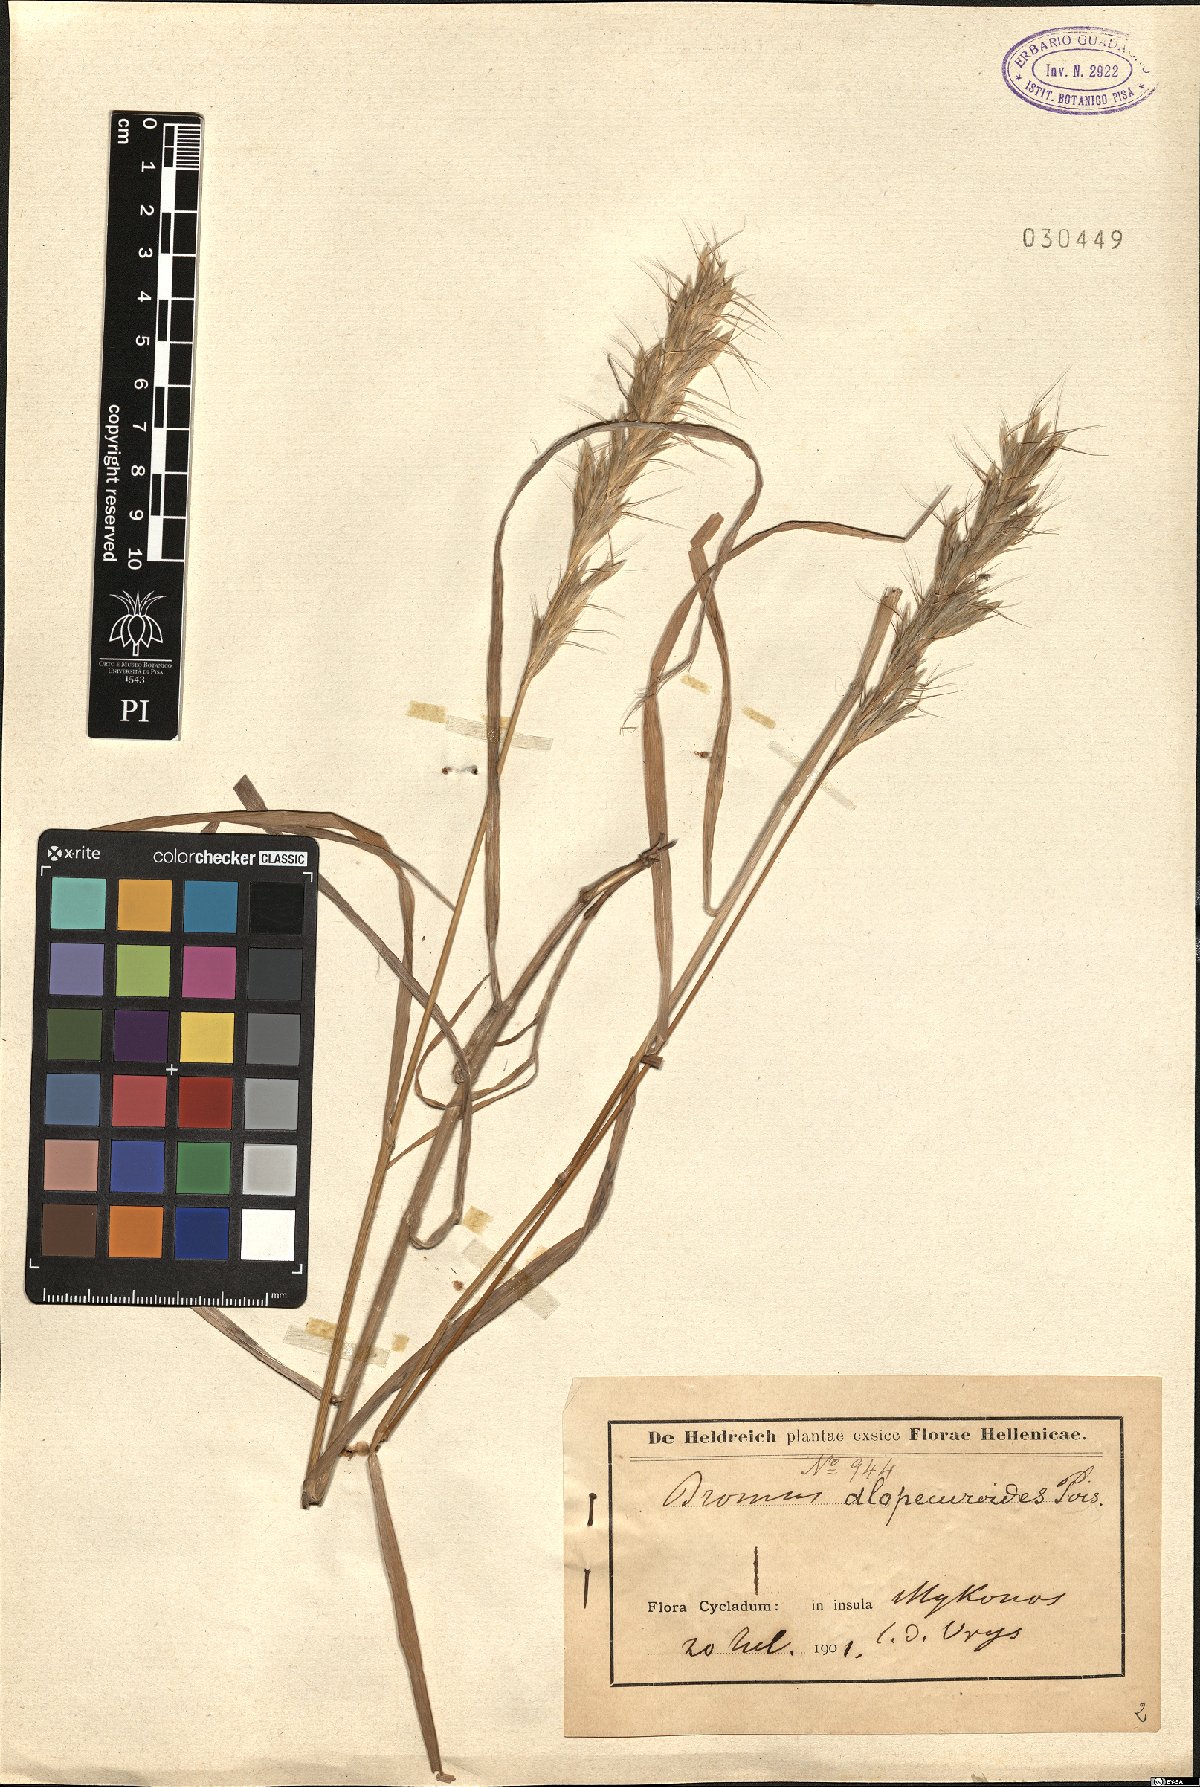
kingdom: Plantae
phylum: Tracheophyta
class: Liliopsida
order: Poales
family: Poaceae
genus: Bromus
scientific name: Bromus alopecuros
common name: Weedy brome
